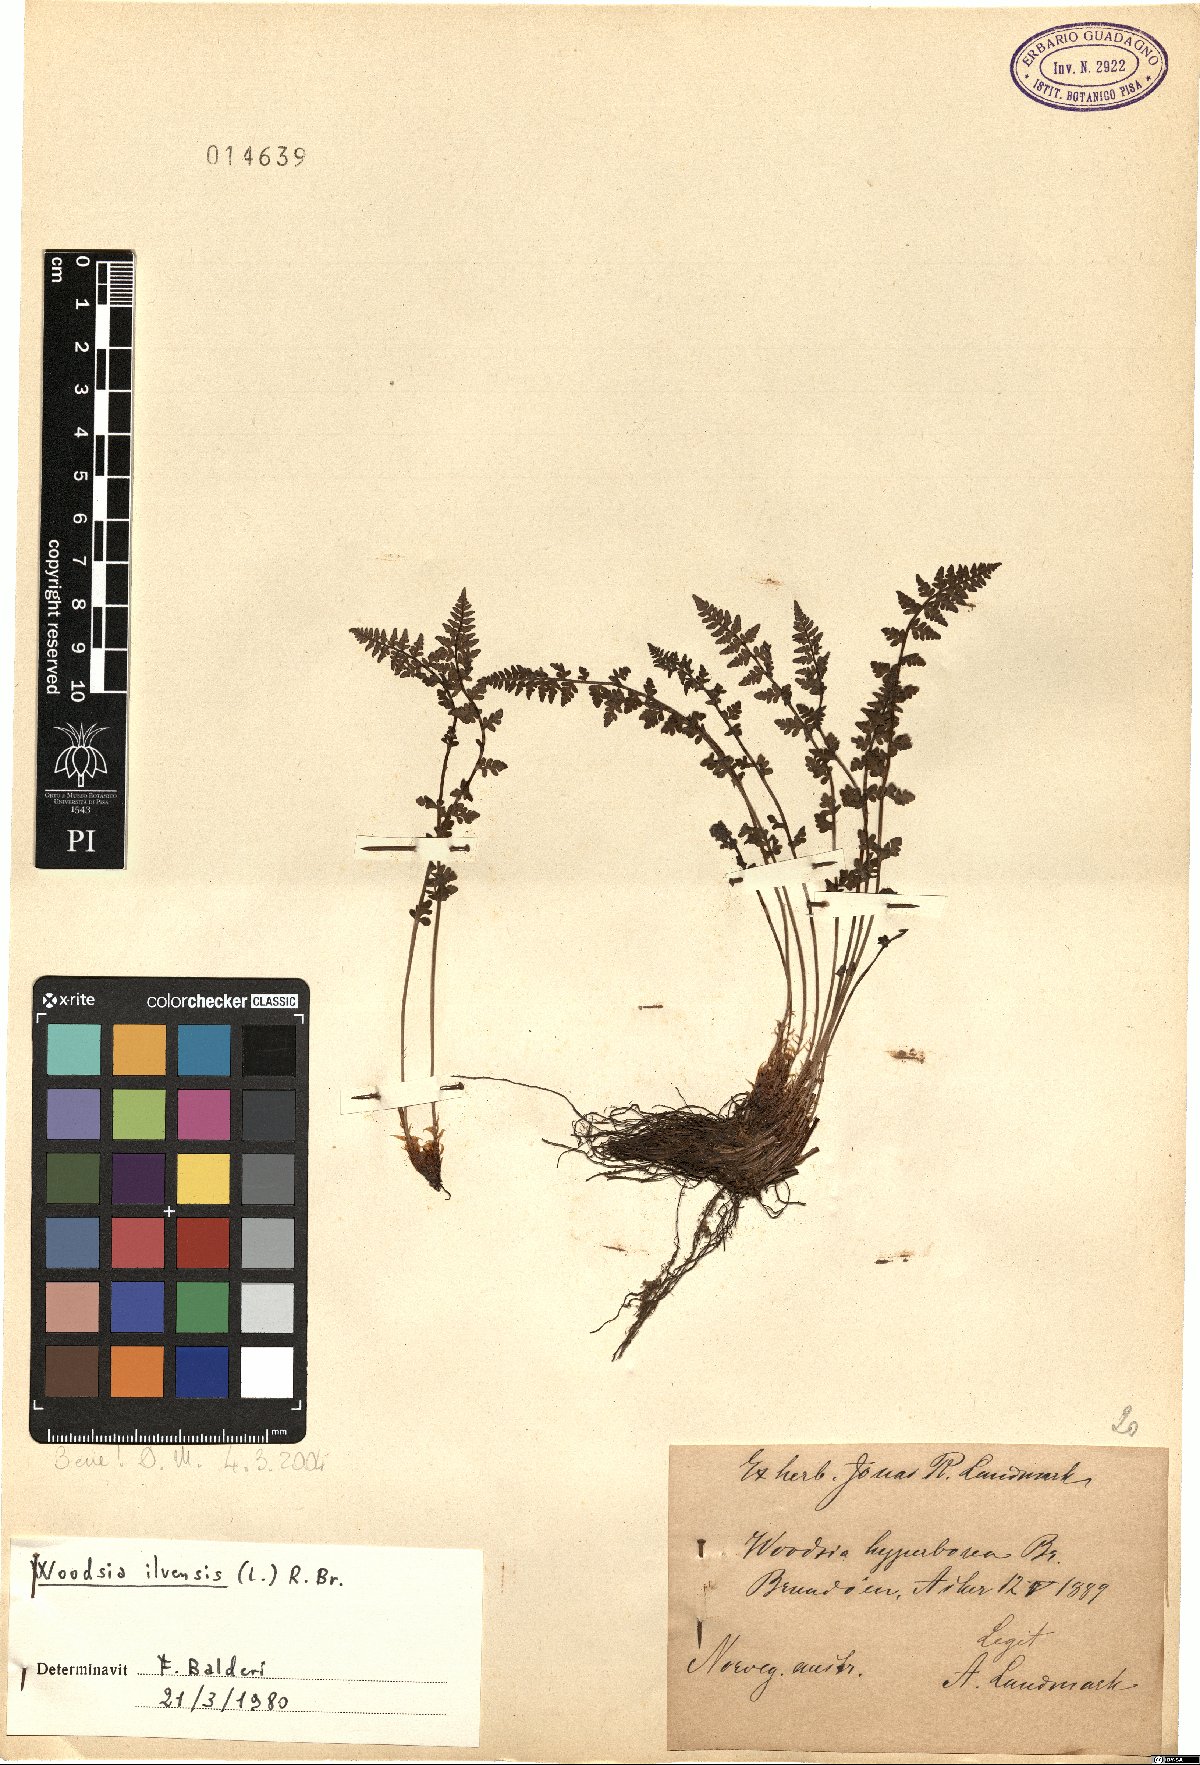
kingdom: Plantae
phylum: Tracheophyta
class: Polypodiopsida
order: Polypodiales
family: Woodsiaceae
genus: Woodsia
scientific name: Woodsia ilvensis
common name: Fragrant woodsia
